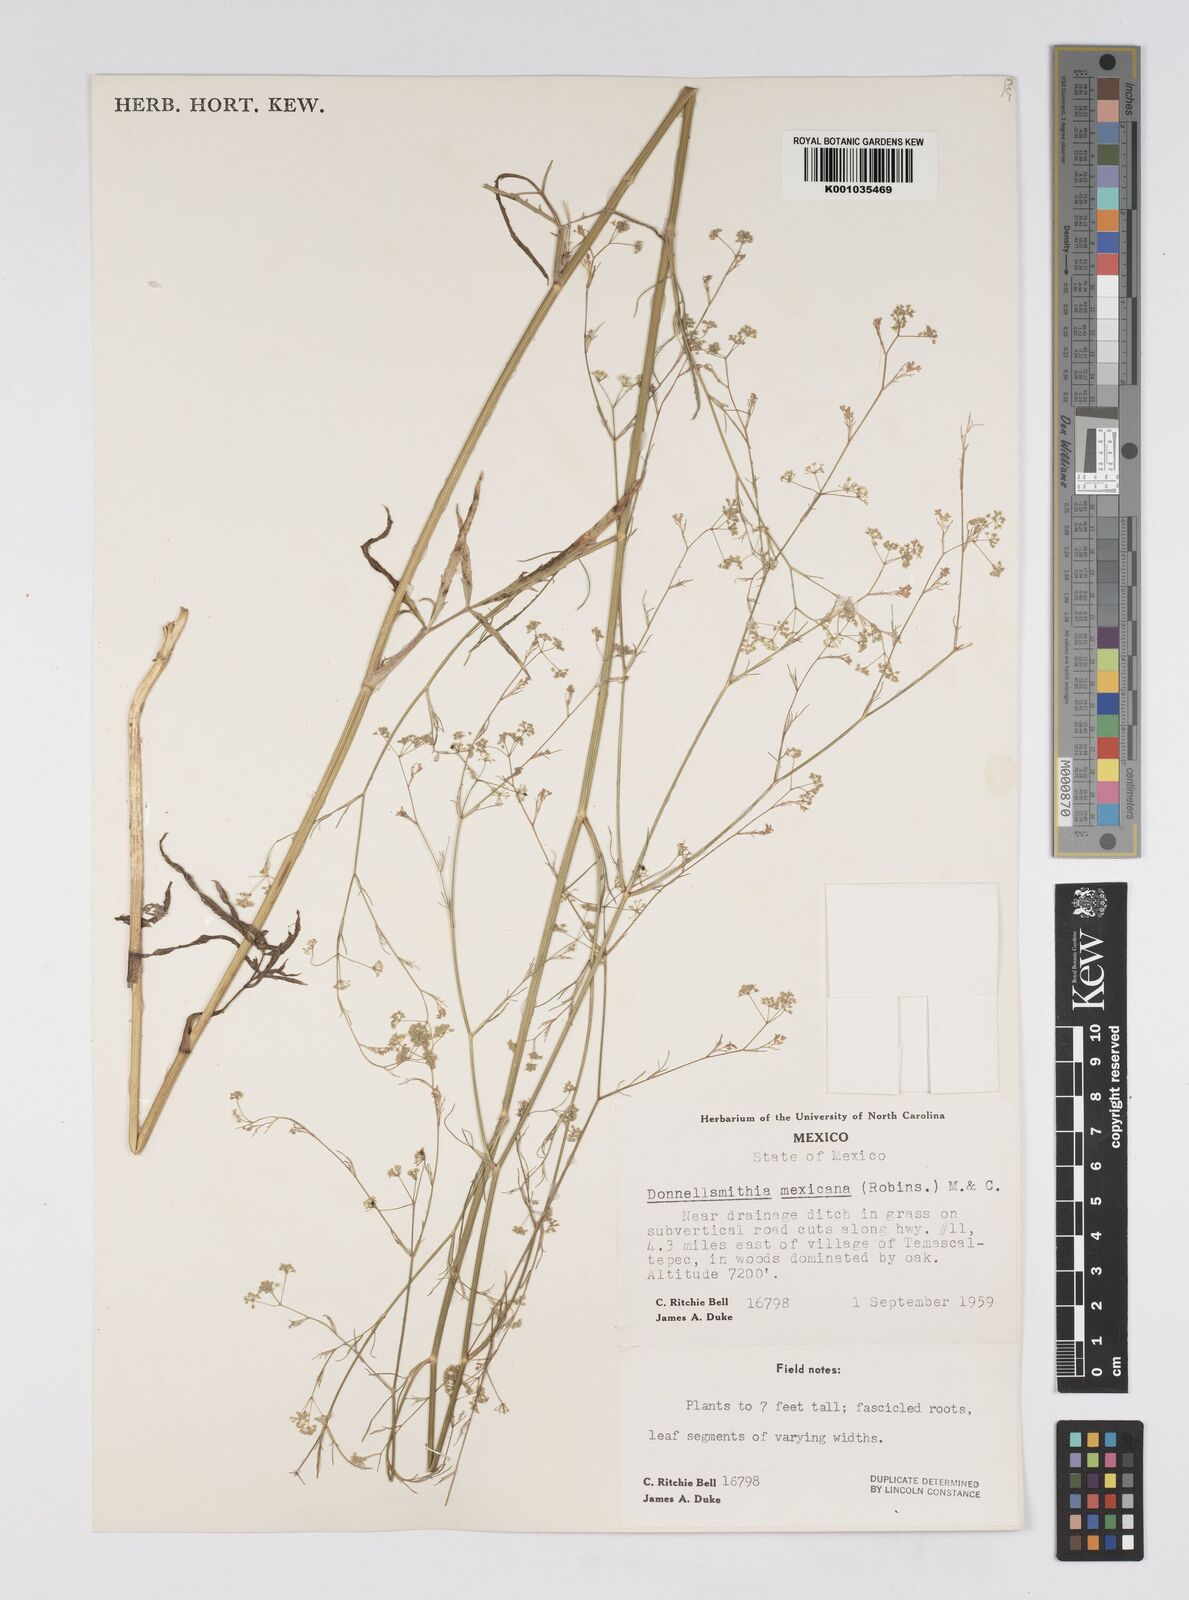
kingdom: Plantae
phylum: Tracheophyta
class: Magnoliopsida
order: Apiales
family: Apiaceae
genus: Donnellsmithia
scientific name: Donnellsmithia mexicana
